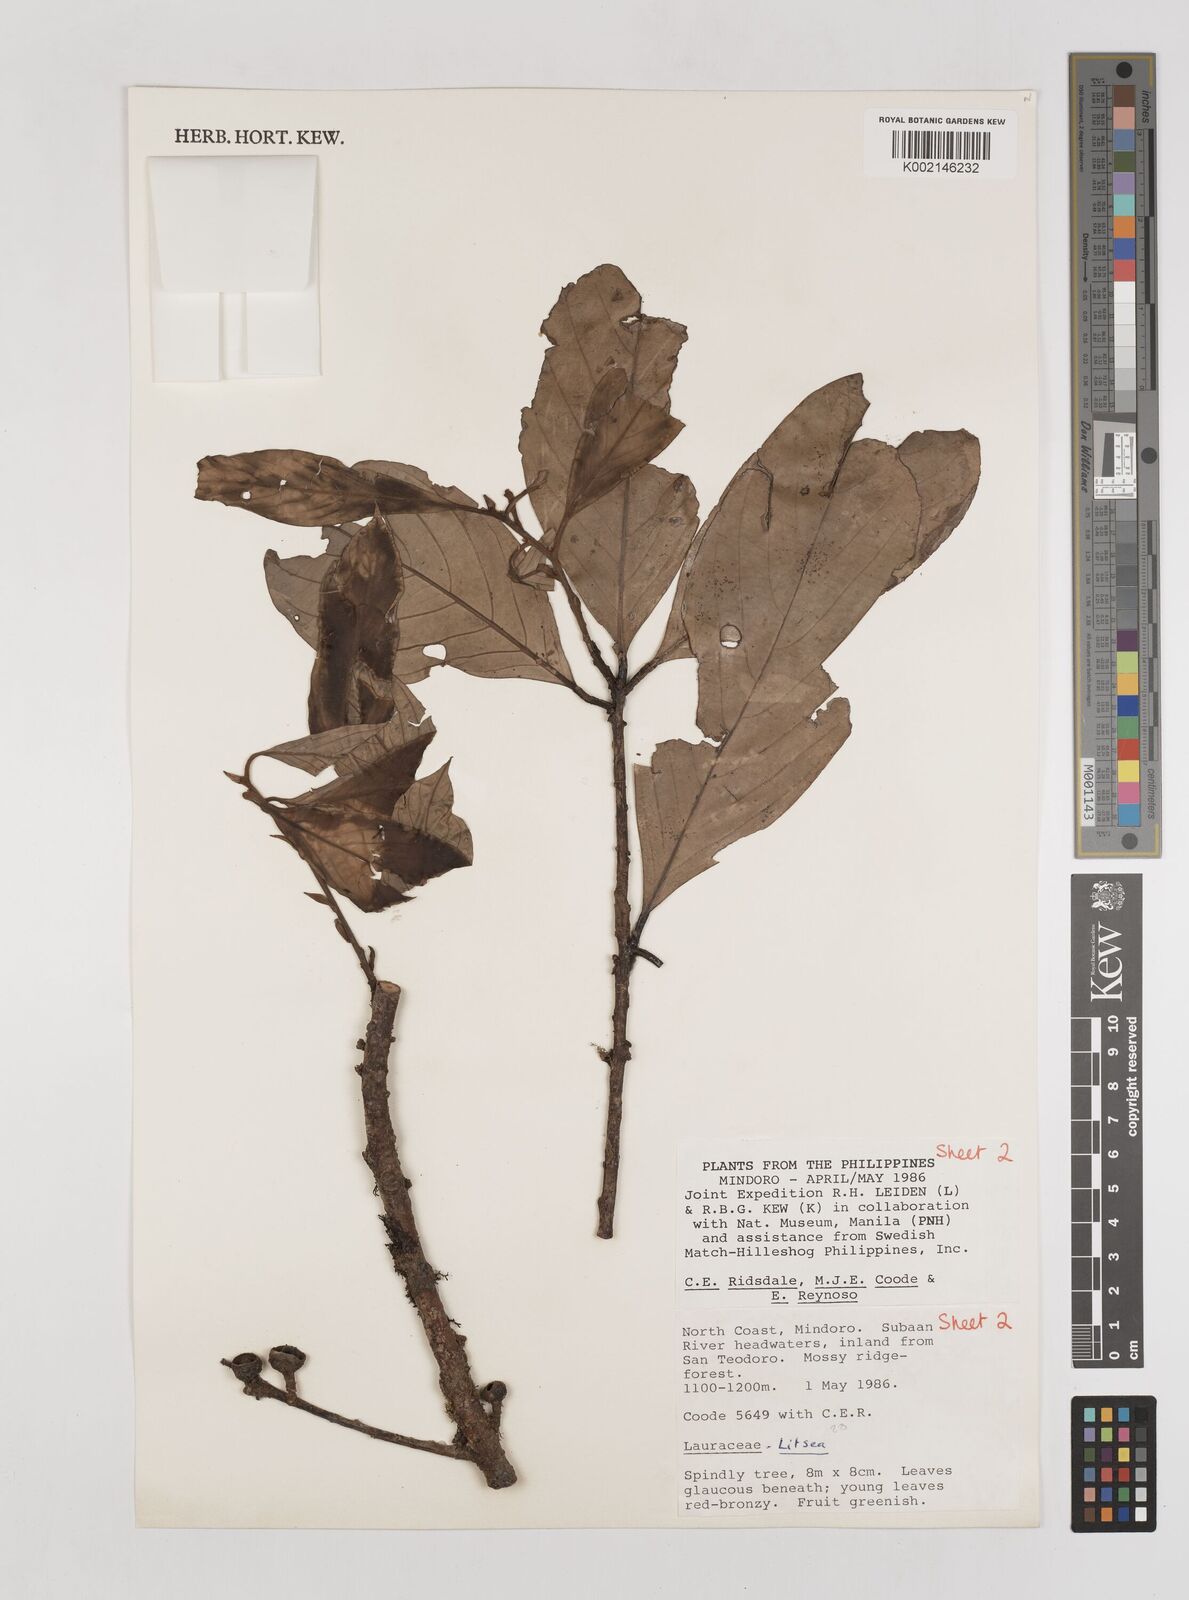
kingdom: Plantae
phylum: Tracheophyta
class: Magnoliopsida
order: Laurales
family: Lauraceae
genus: Litsea
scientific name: Litsea
